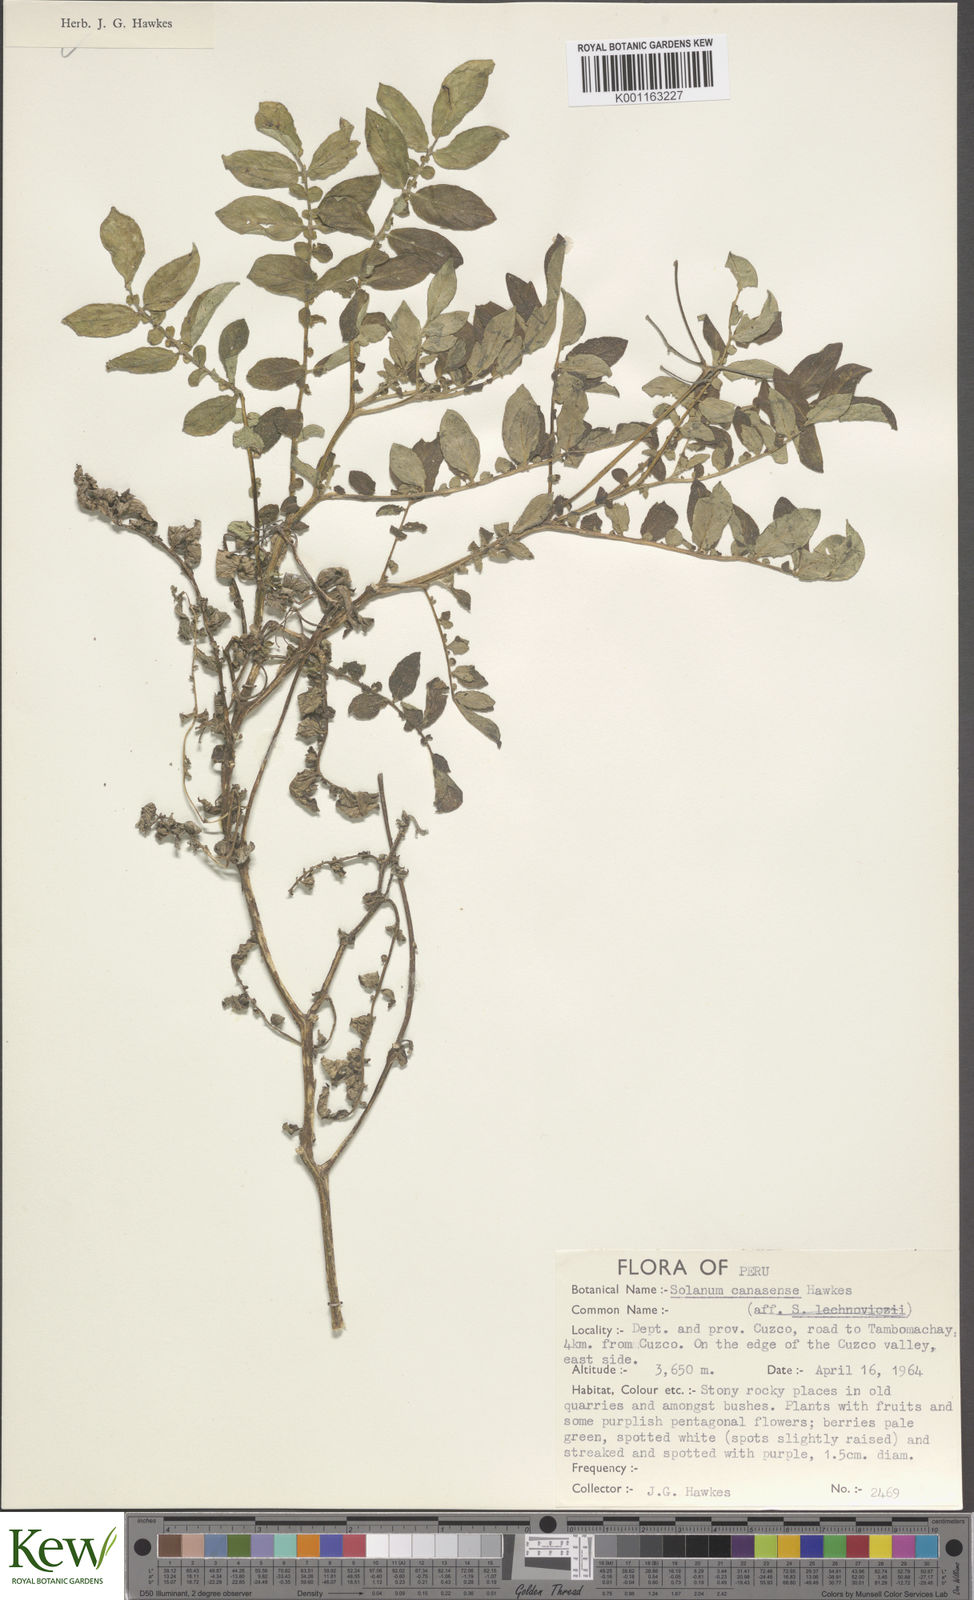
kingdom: Plantae
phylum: Tracheophyta
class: Magnoliopsida
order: Solanales
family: Solanaceae
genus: Solanum
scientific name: Solanum candolleanum
